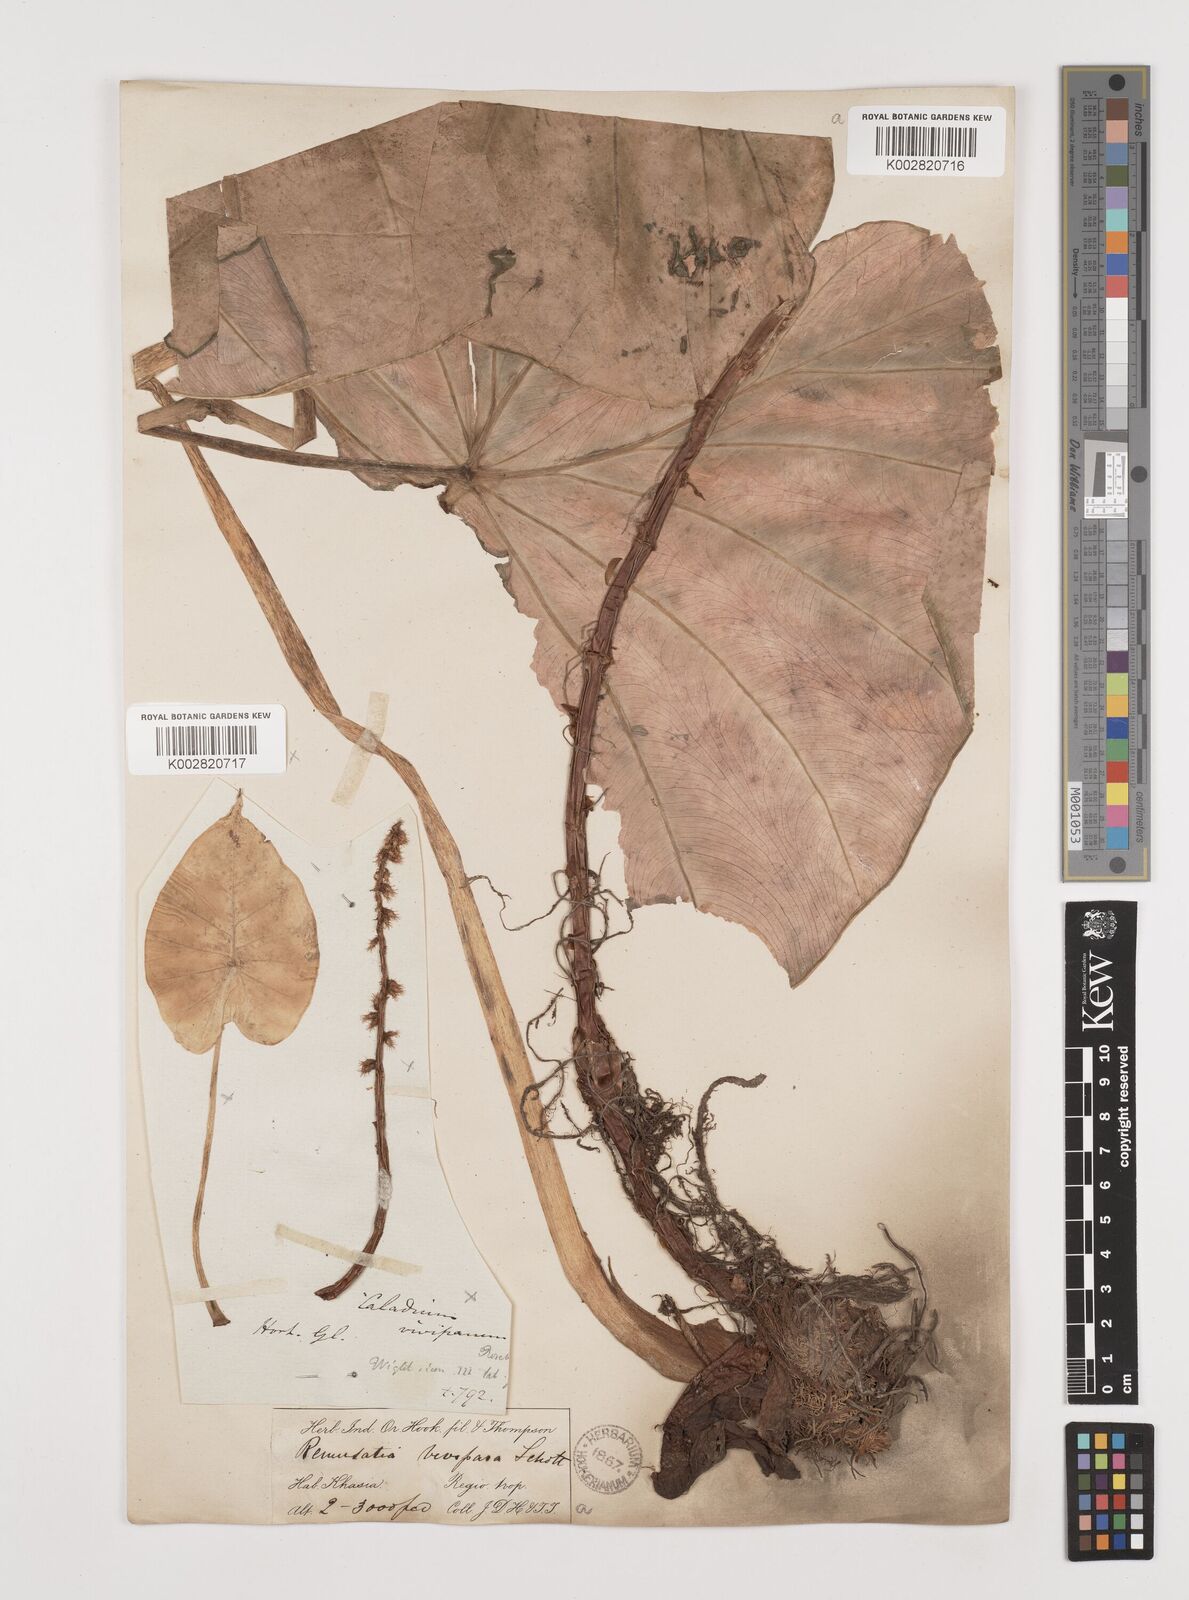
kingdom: Plantae
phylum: Tracheophyta
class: Liliopsida
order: Alismatales
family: Araceae
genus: Remusatia
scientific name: Remusatia vivipara
